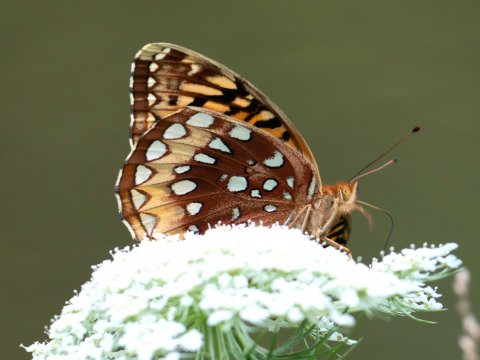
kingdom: Animalia
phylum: Arthropoda
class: Insecta
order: Lepidoptera
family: Nymphalidae
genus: Speyeria
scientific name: Speyeria cybele
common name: Great Spangled Fritillary
